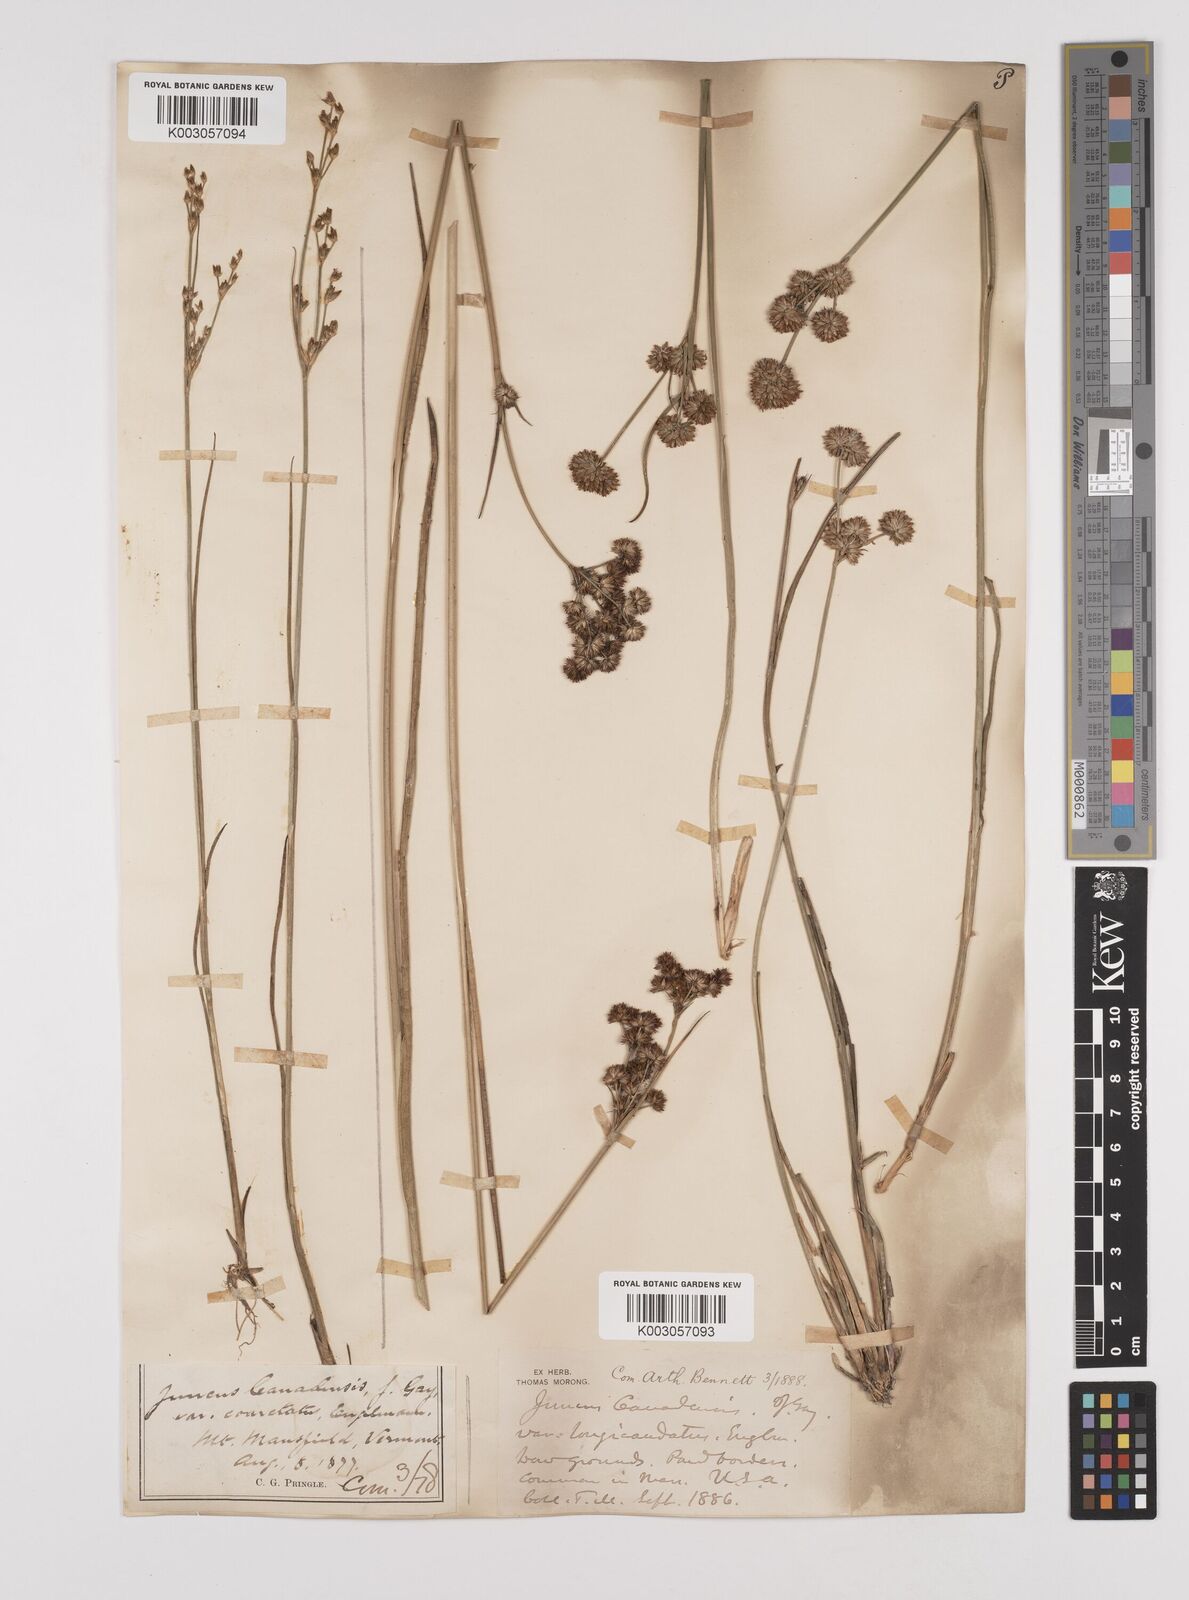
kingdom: Plantae
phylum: Tracheophyta
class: Liliopsida
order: Poales
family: Juncaceae
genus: Juncus
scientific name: Juncus canadensis
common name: Canada rush
